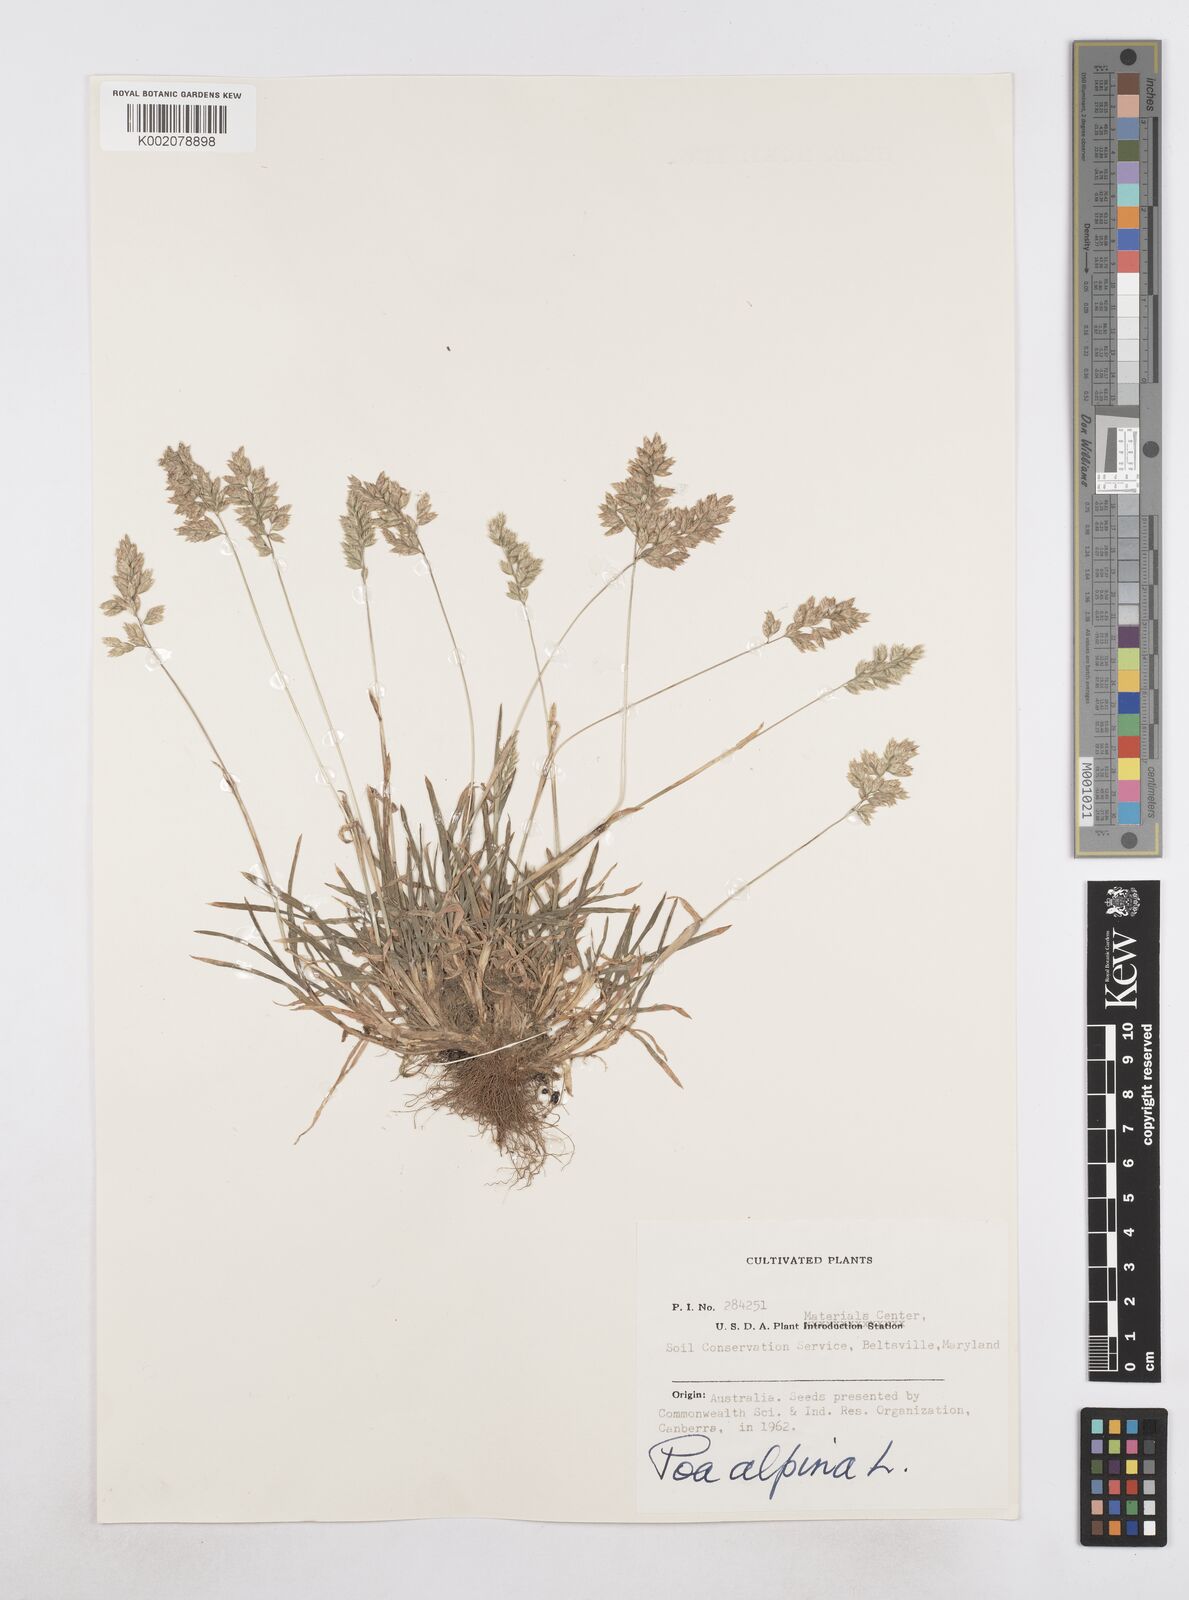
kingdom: Plantae
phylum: Tracheophyta
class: Liliopsida
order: Poales
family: Poaceae
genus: Poa
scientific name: Poa alpina
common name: Alpine bluegrass
